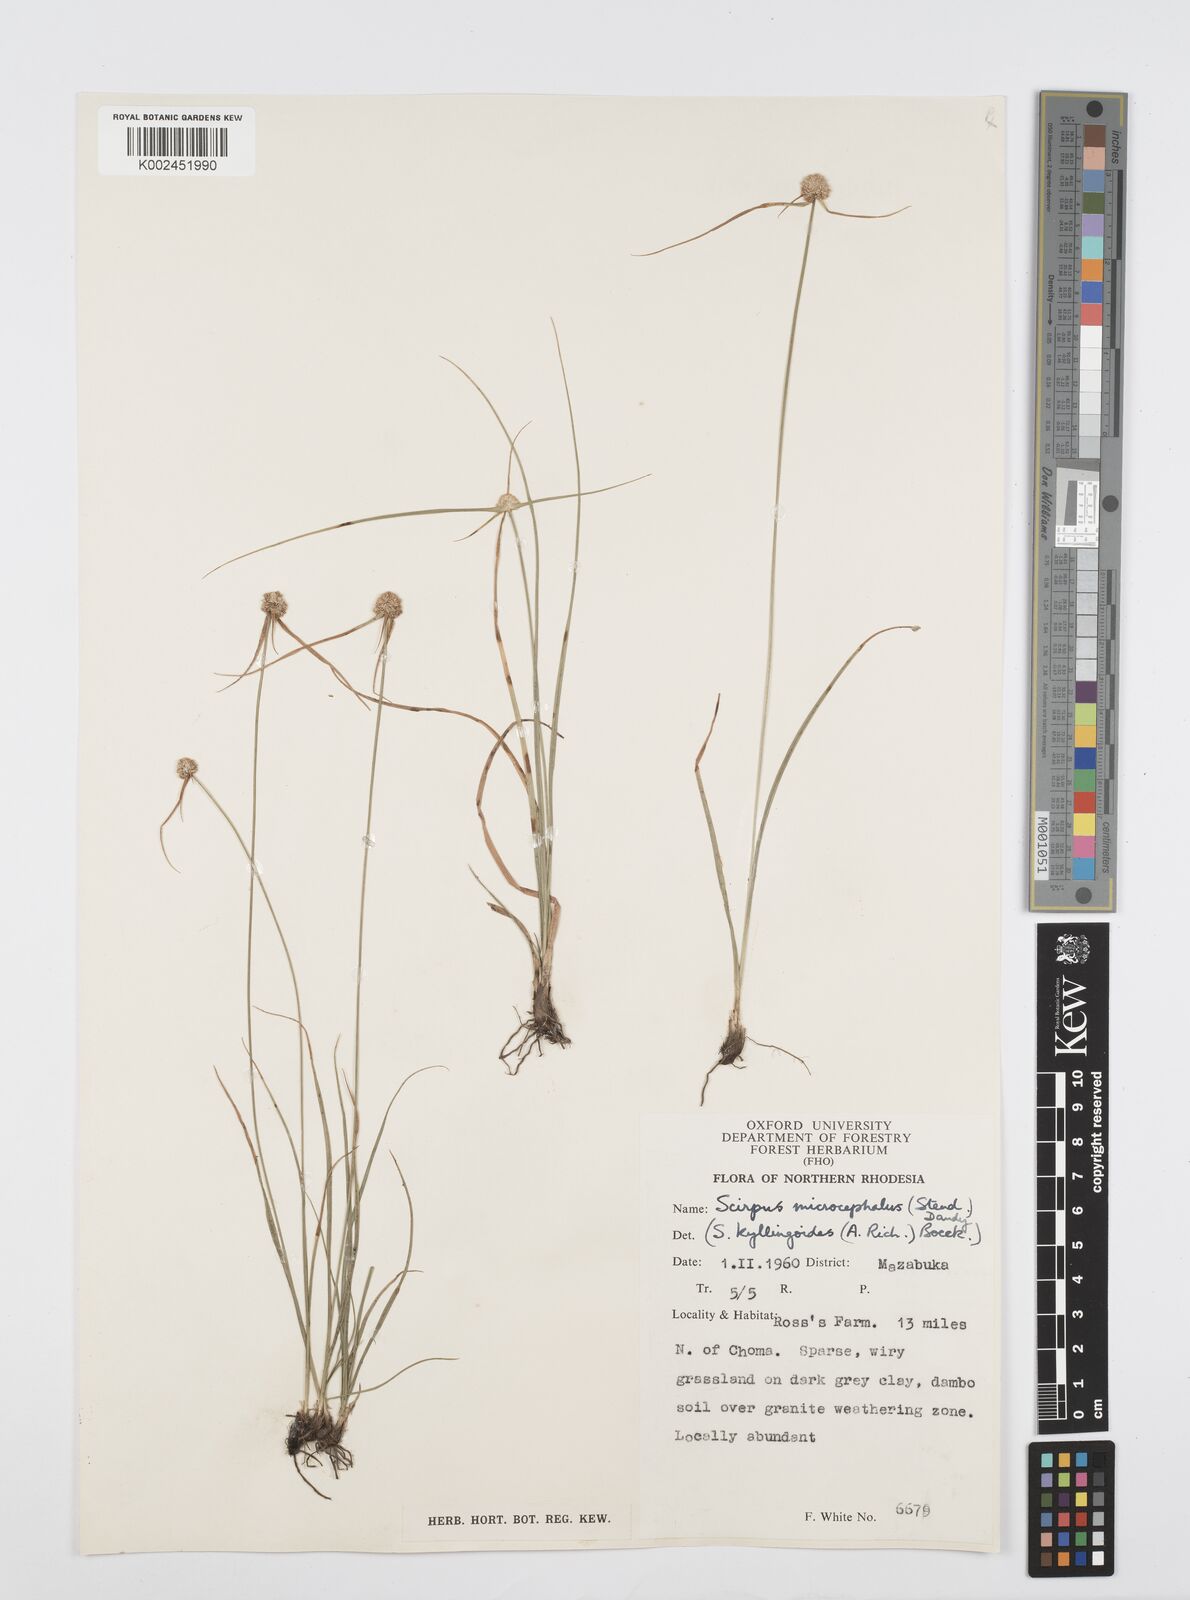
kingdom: Plantae
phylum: Tracheophyta
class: Liliopsida
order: Poales
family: Cyperaceae
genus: Cyperus
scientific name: Cyperus microcephalus
